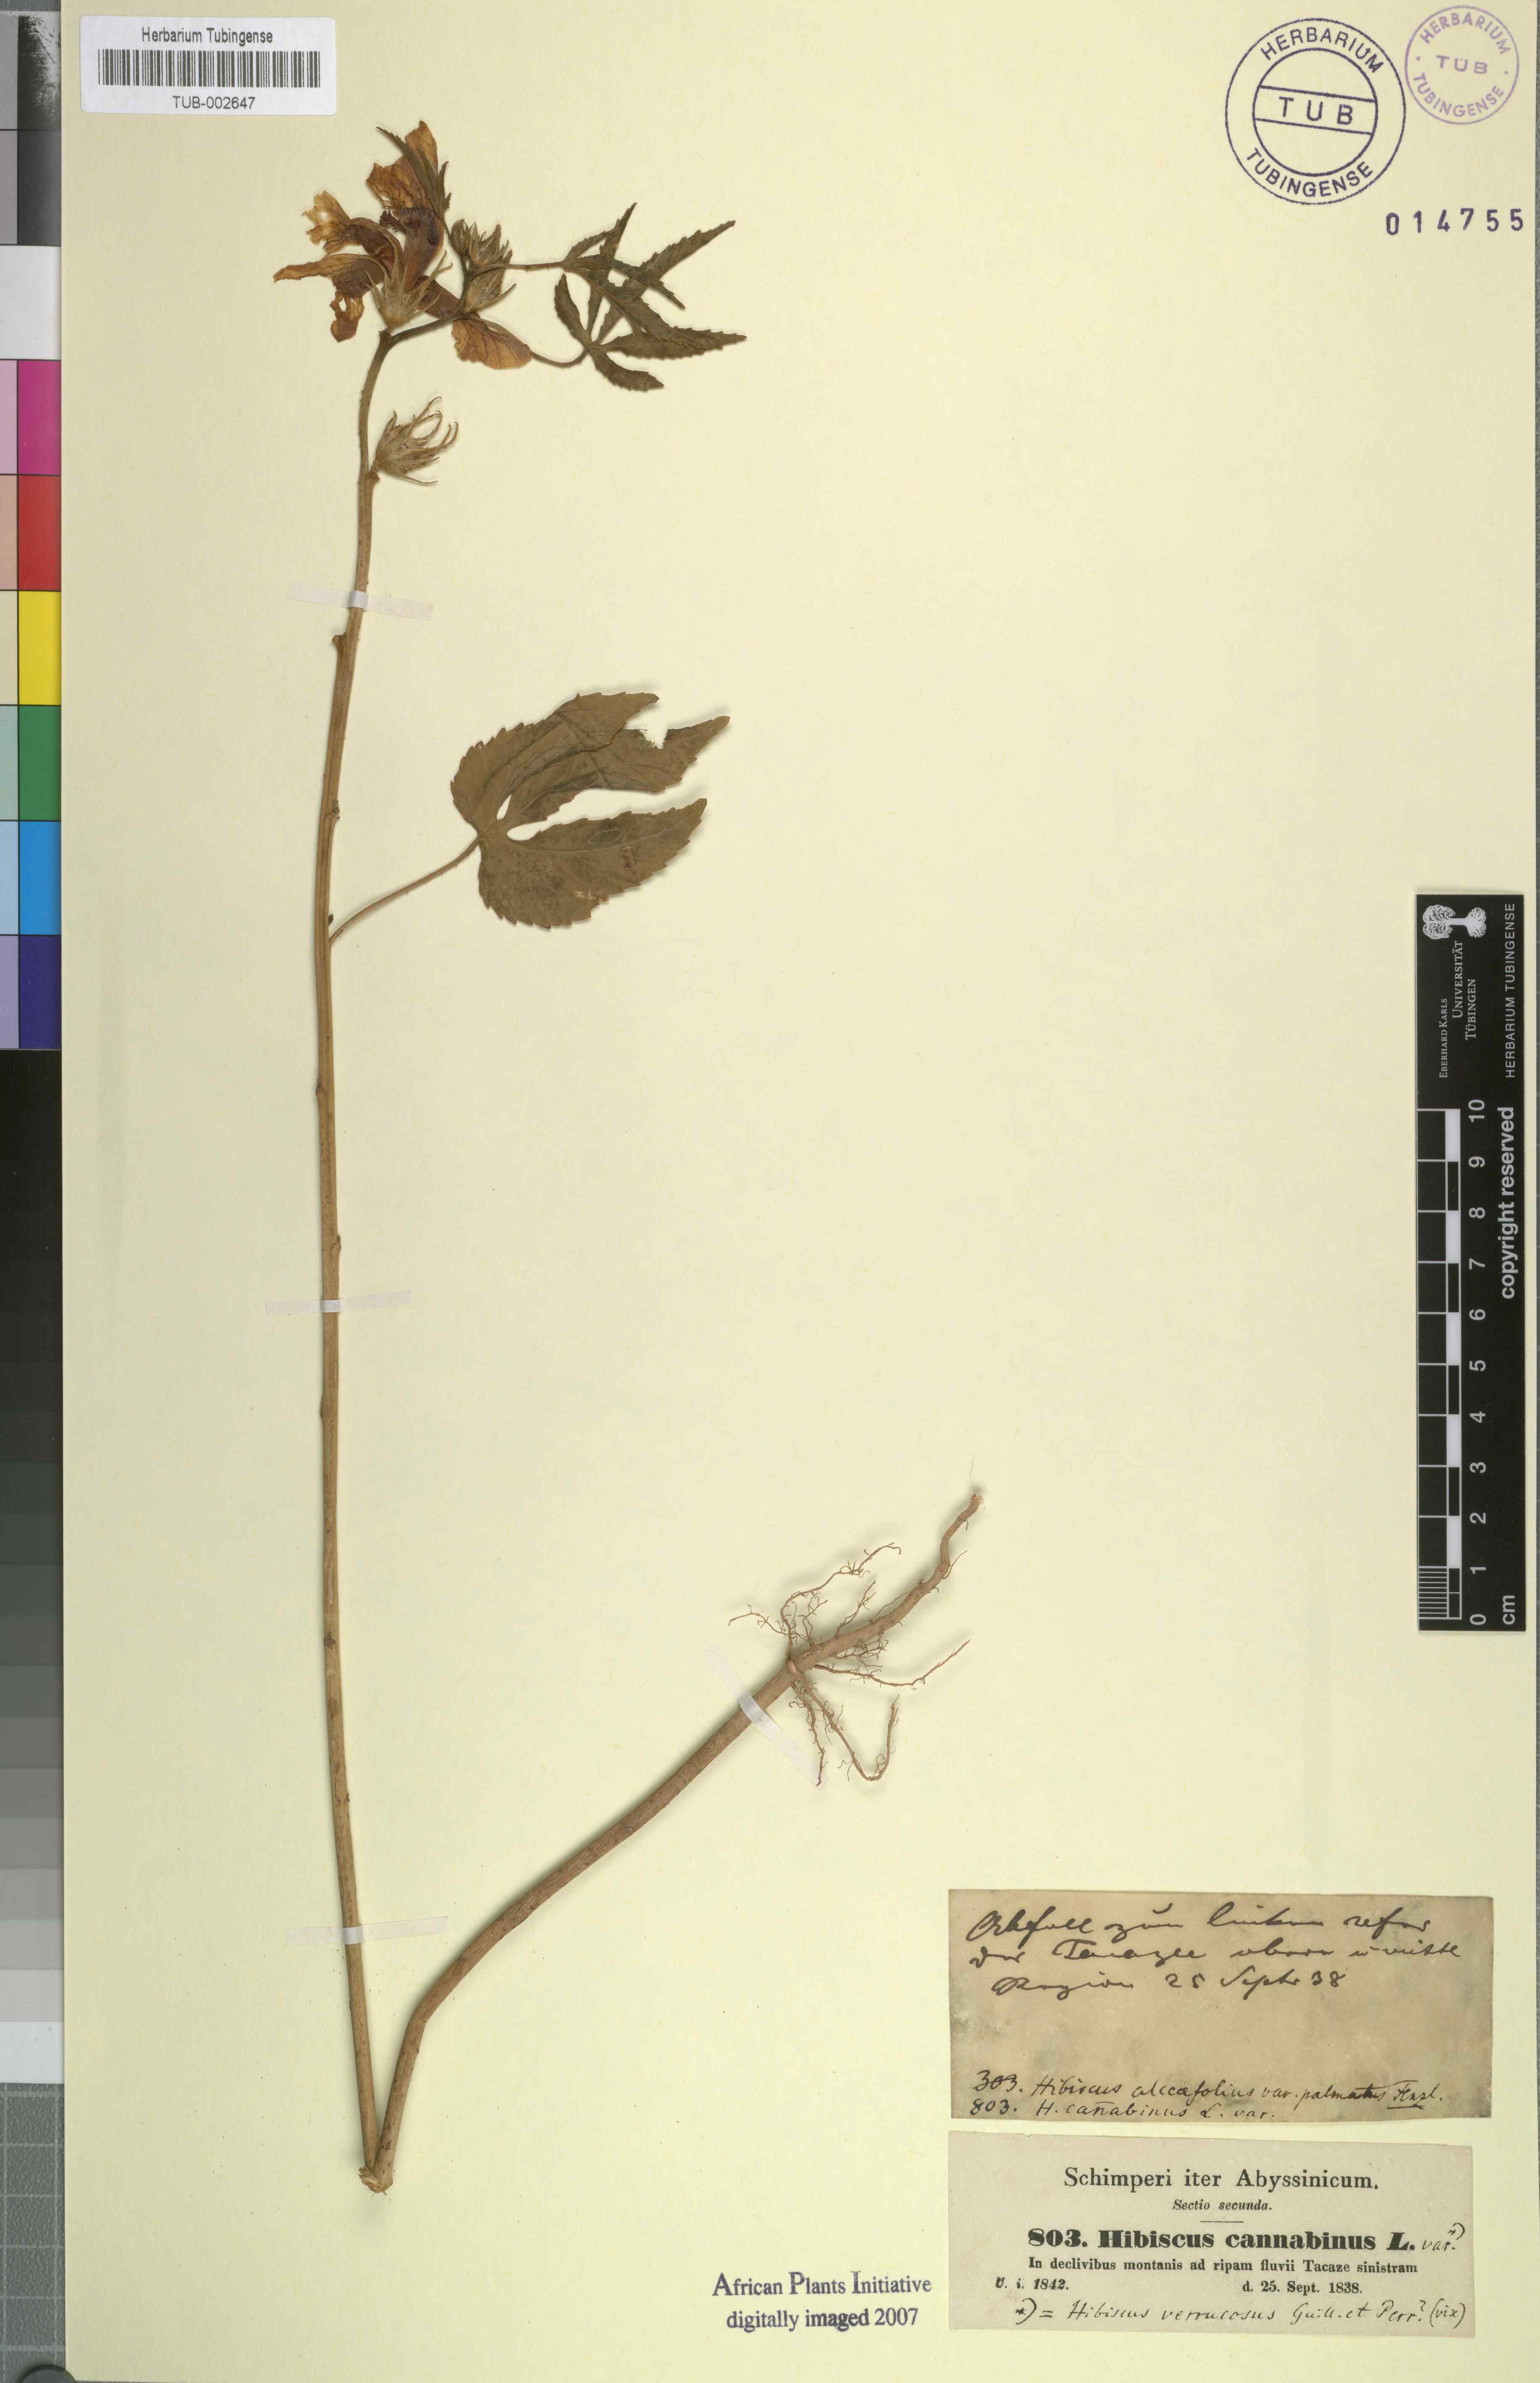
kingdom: Plantae
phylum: Tracheophyta
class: Magnoliopsida
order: Malvales
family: Malvaceae
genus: Hibiscus
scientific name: Hibiscus cannabinus
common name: Brown indianhemp
